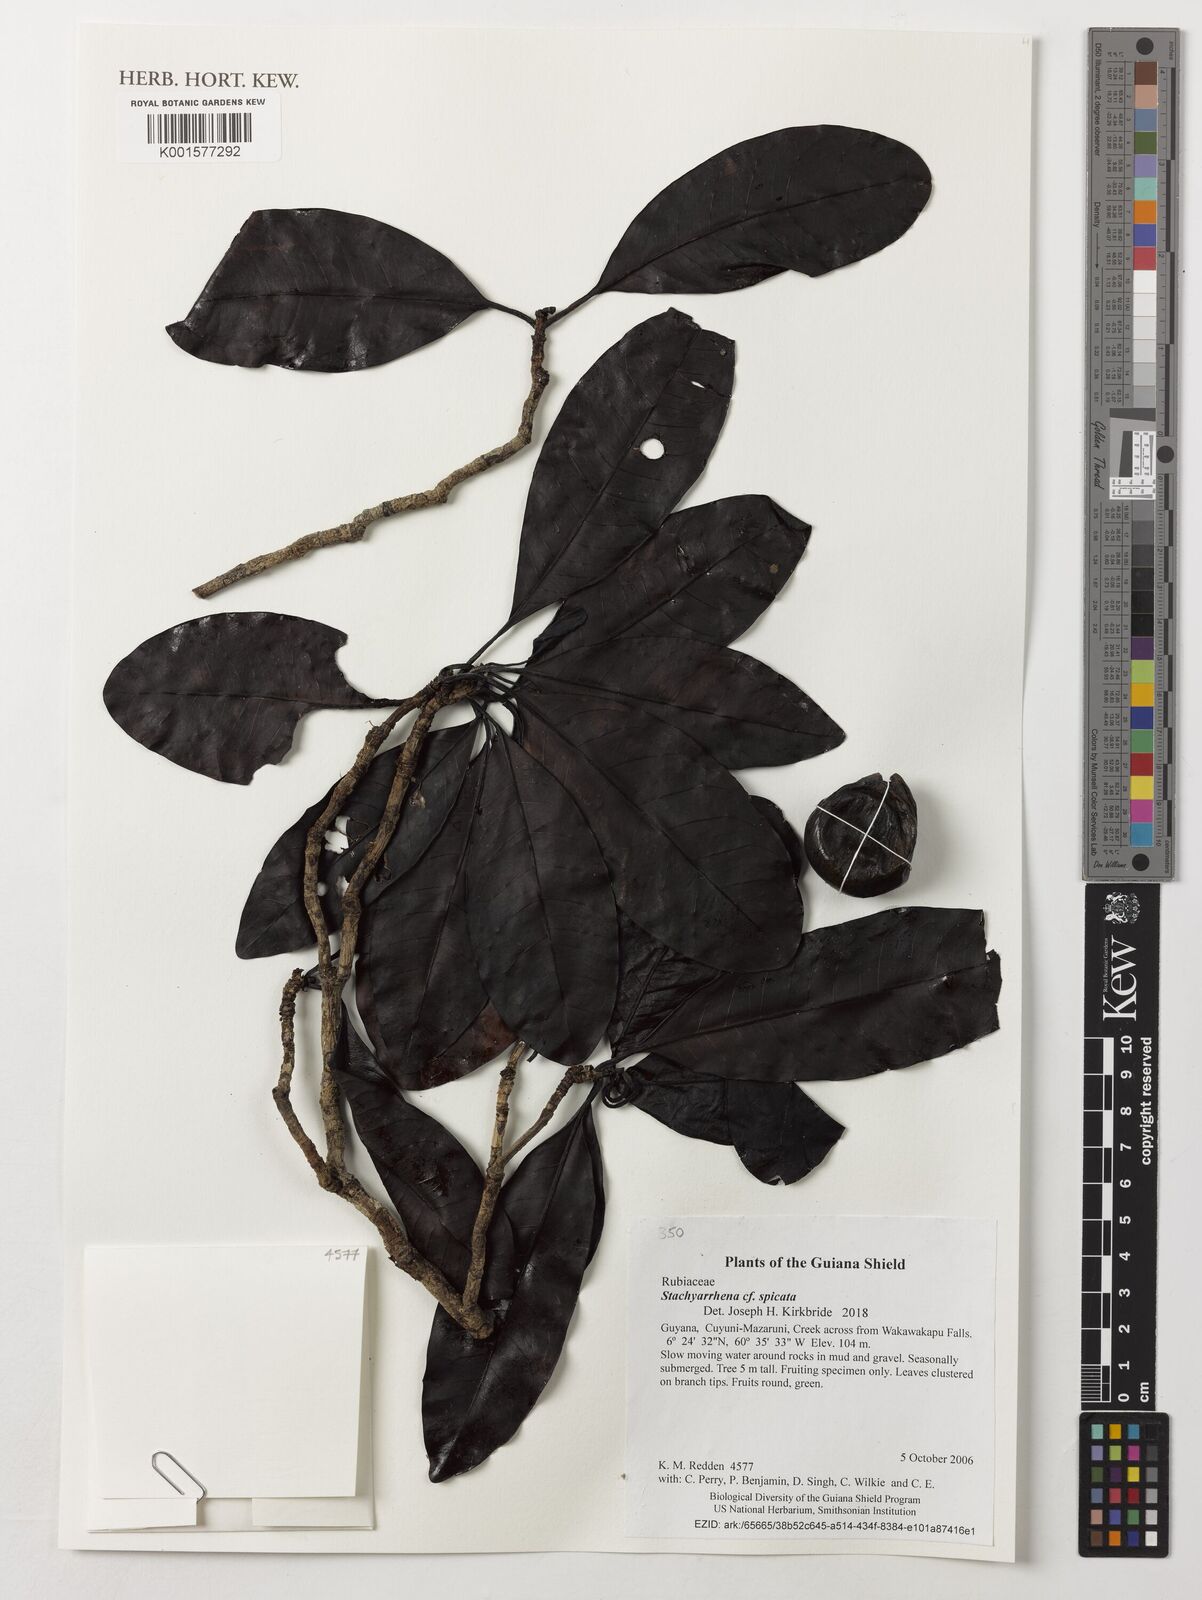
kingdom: Plantae
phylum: Tracheophyta
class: Magnoliopsida
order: Gentianales
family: Rubiaceae
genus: Stachyarrhena
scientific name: Stachyarrhena spicata
